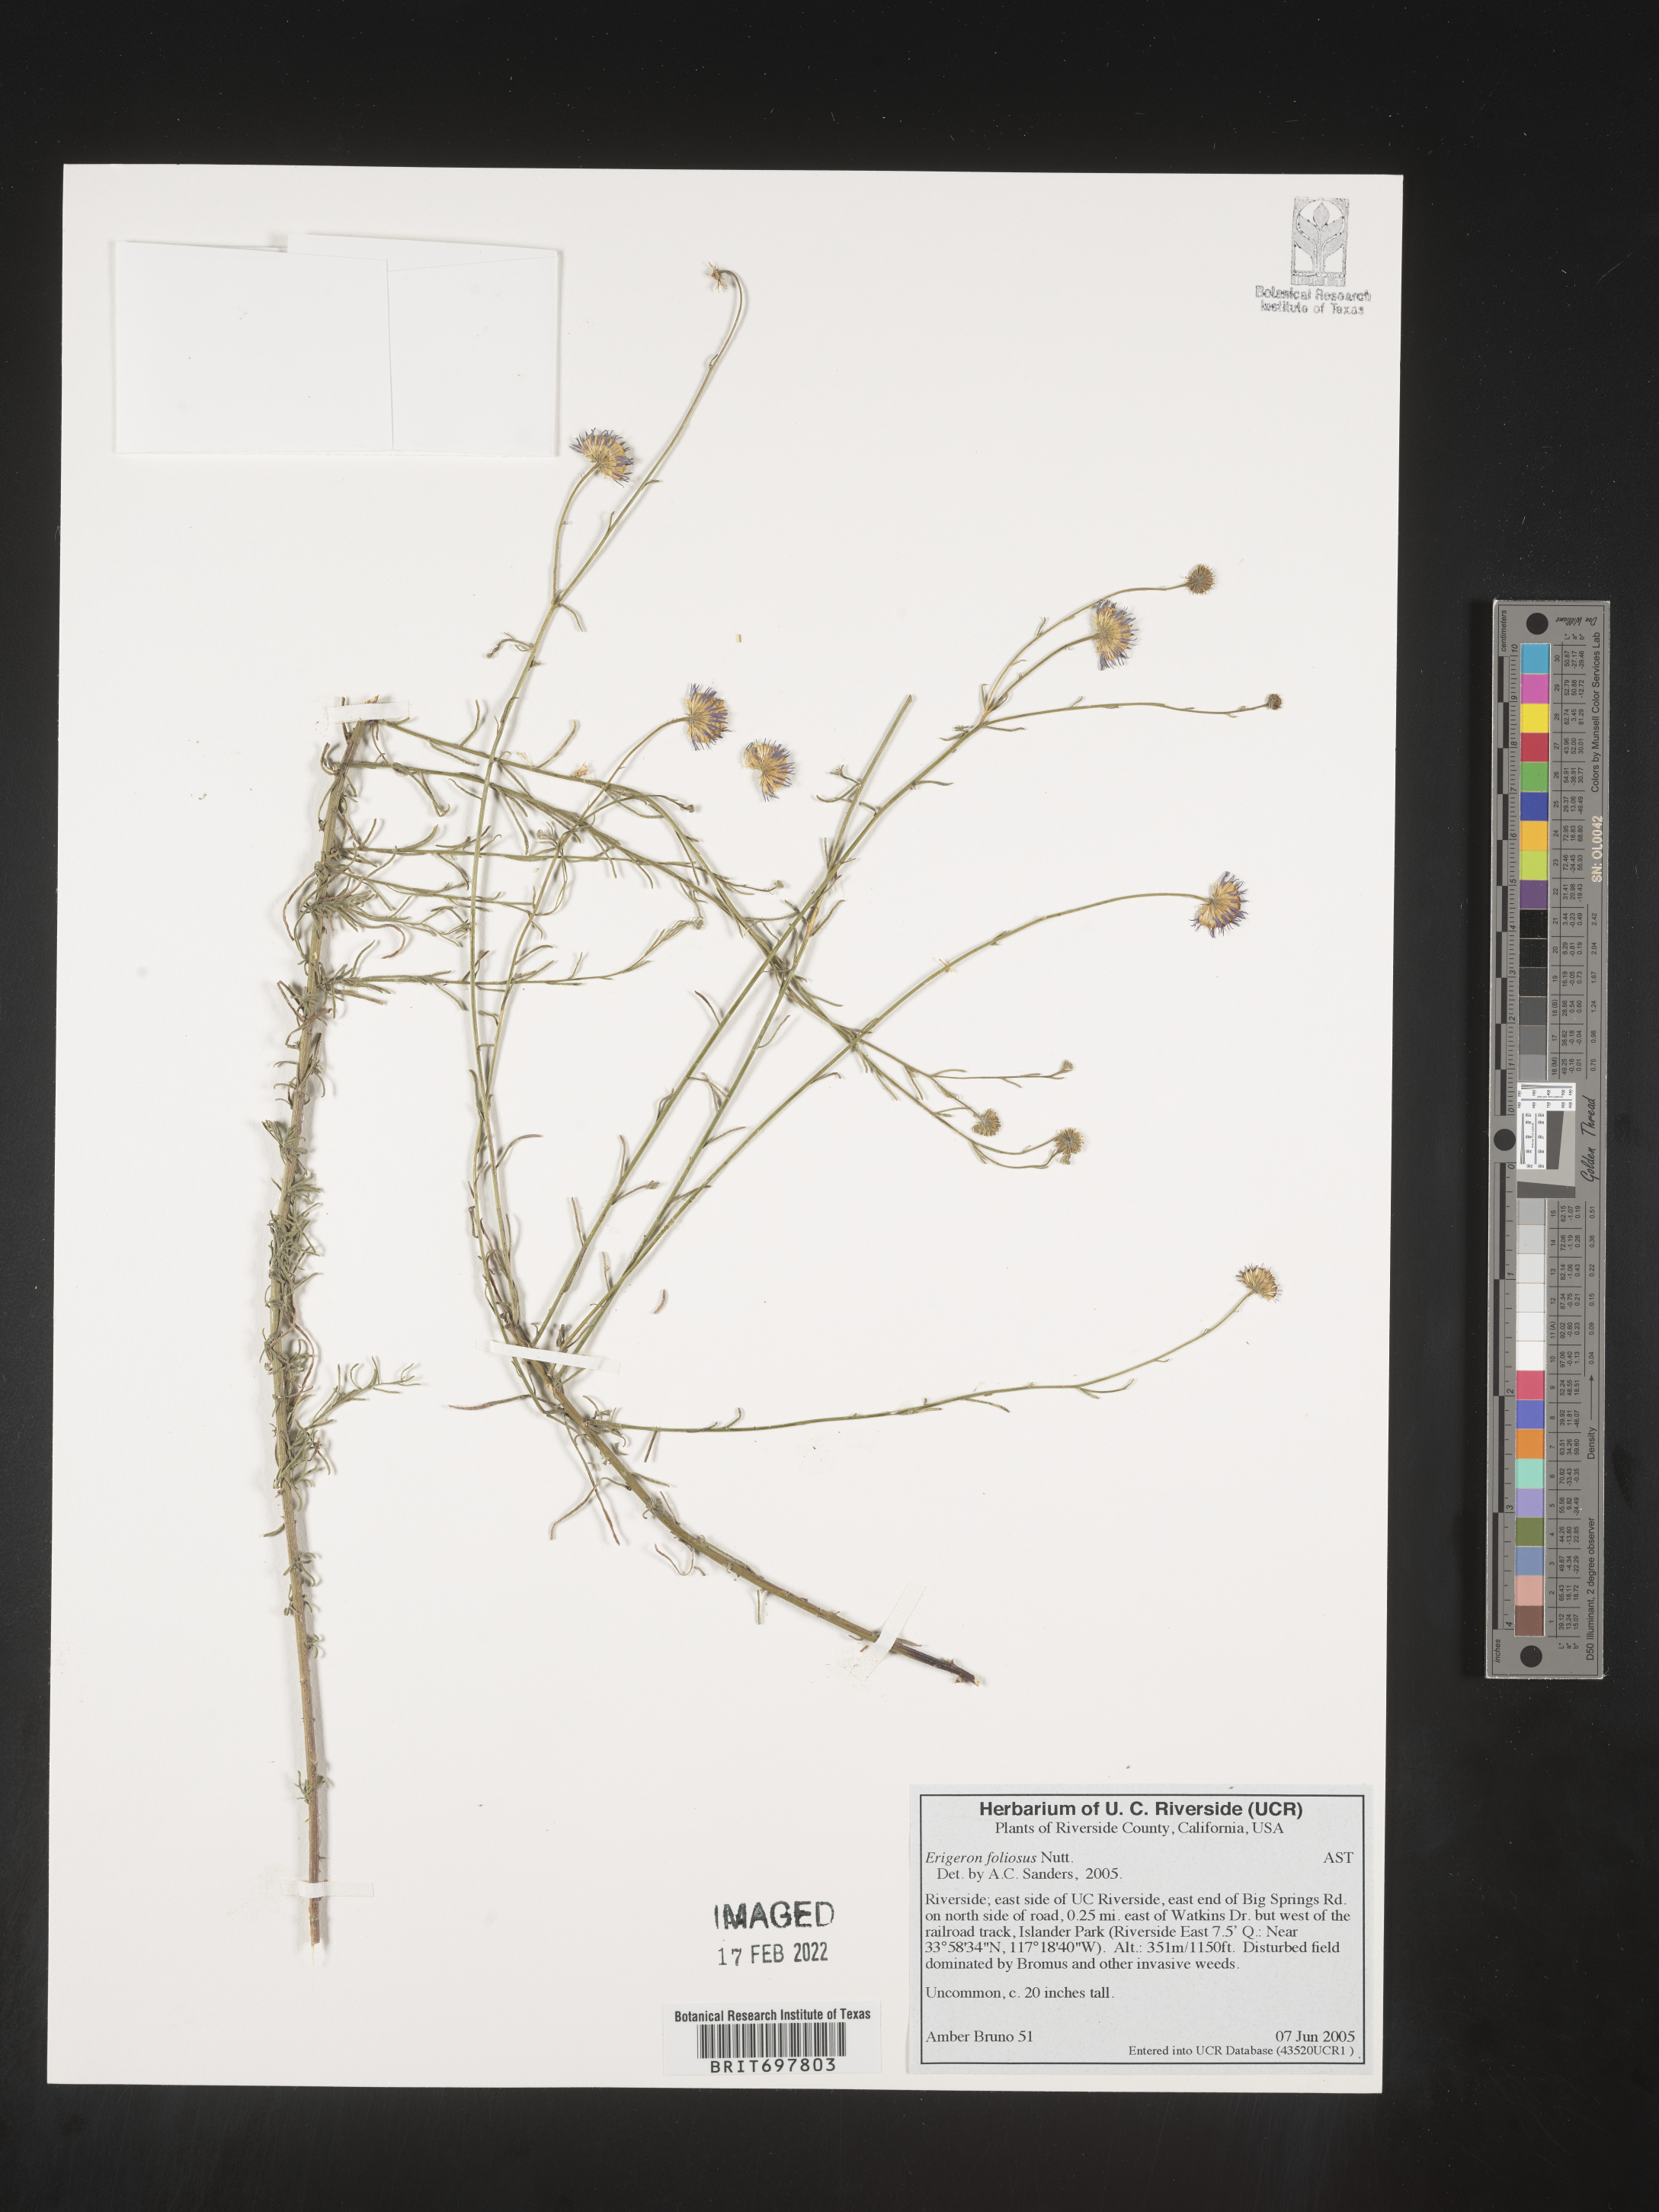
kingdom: Plantae
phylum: Tracheophyta
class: Magnoliopsida
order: Asterales
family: Asteraceae
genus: Erigeron
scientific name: Erigeron foliosus
